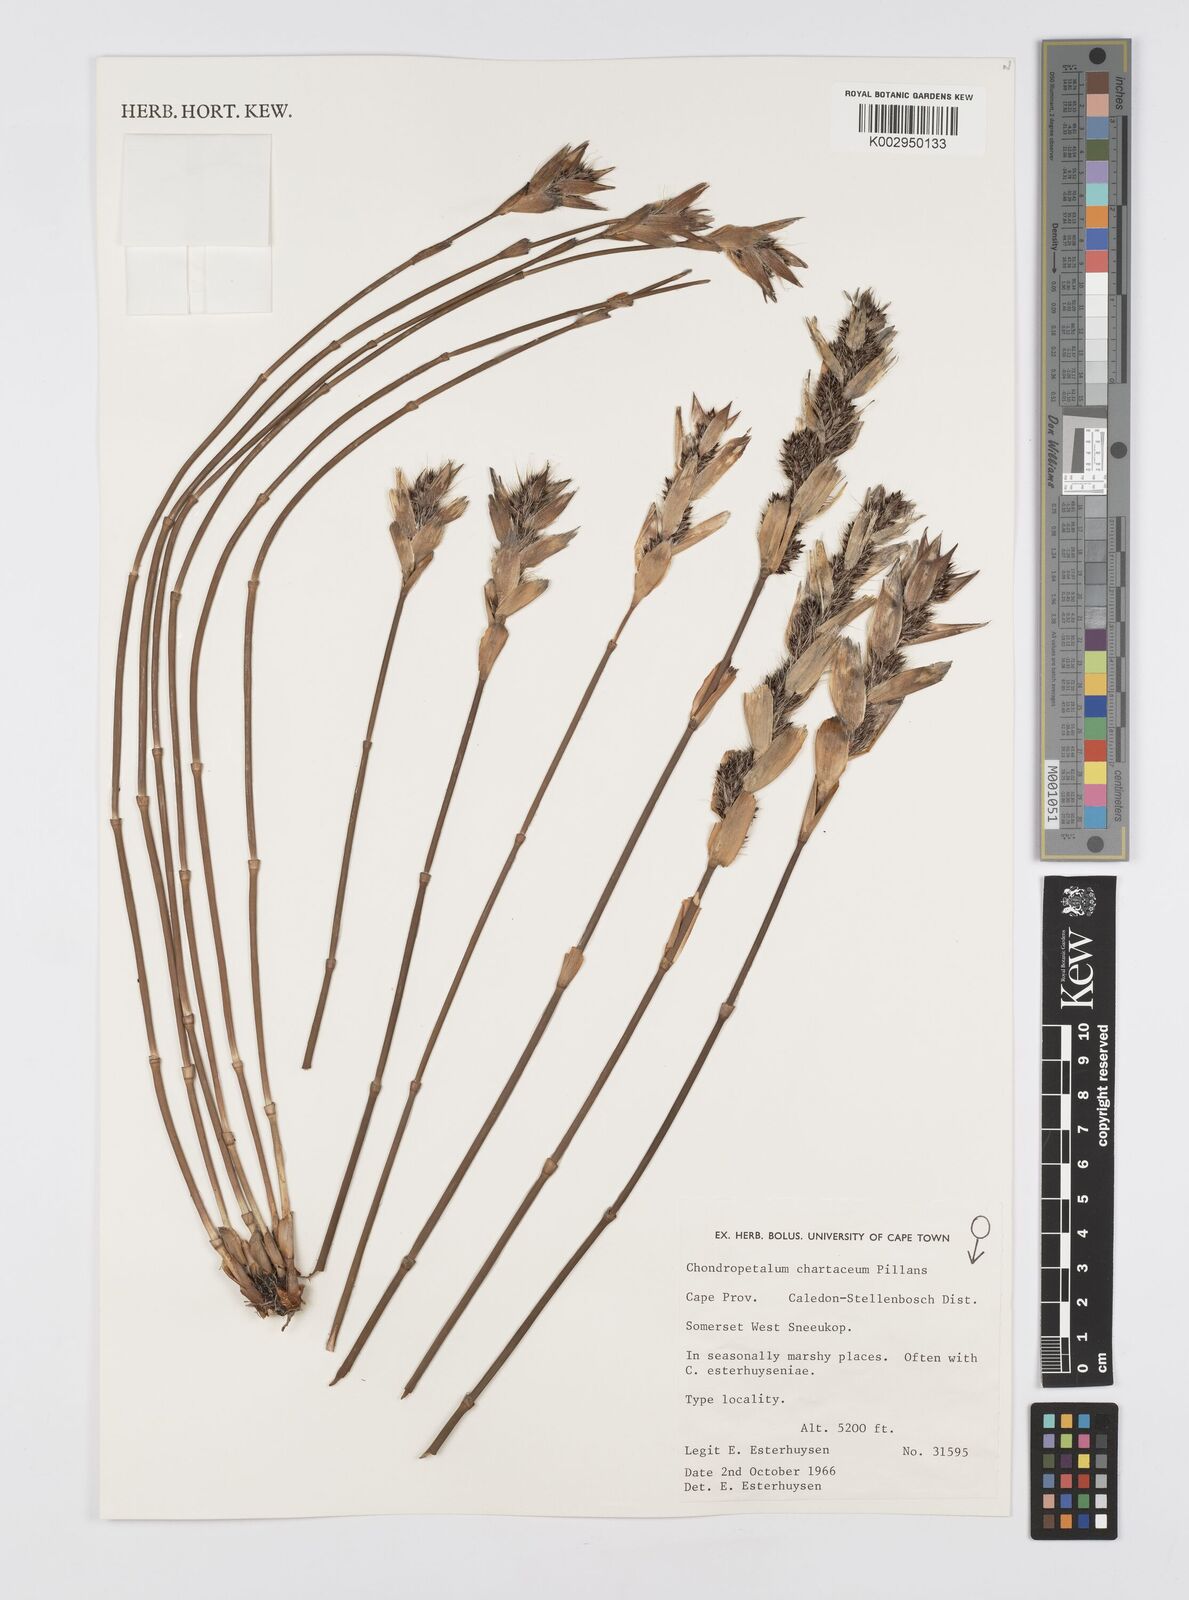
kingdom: Plantae
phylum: Tracheophyta
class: Liliopsida
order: Poales
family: Restionaceae
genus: Askidiosperma
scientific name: Askidiosperma chartaceum
